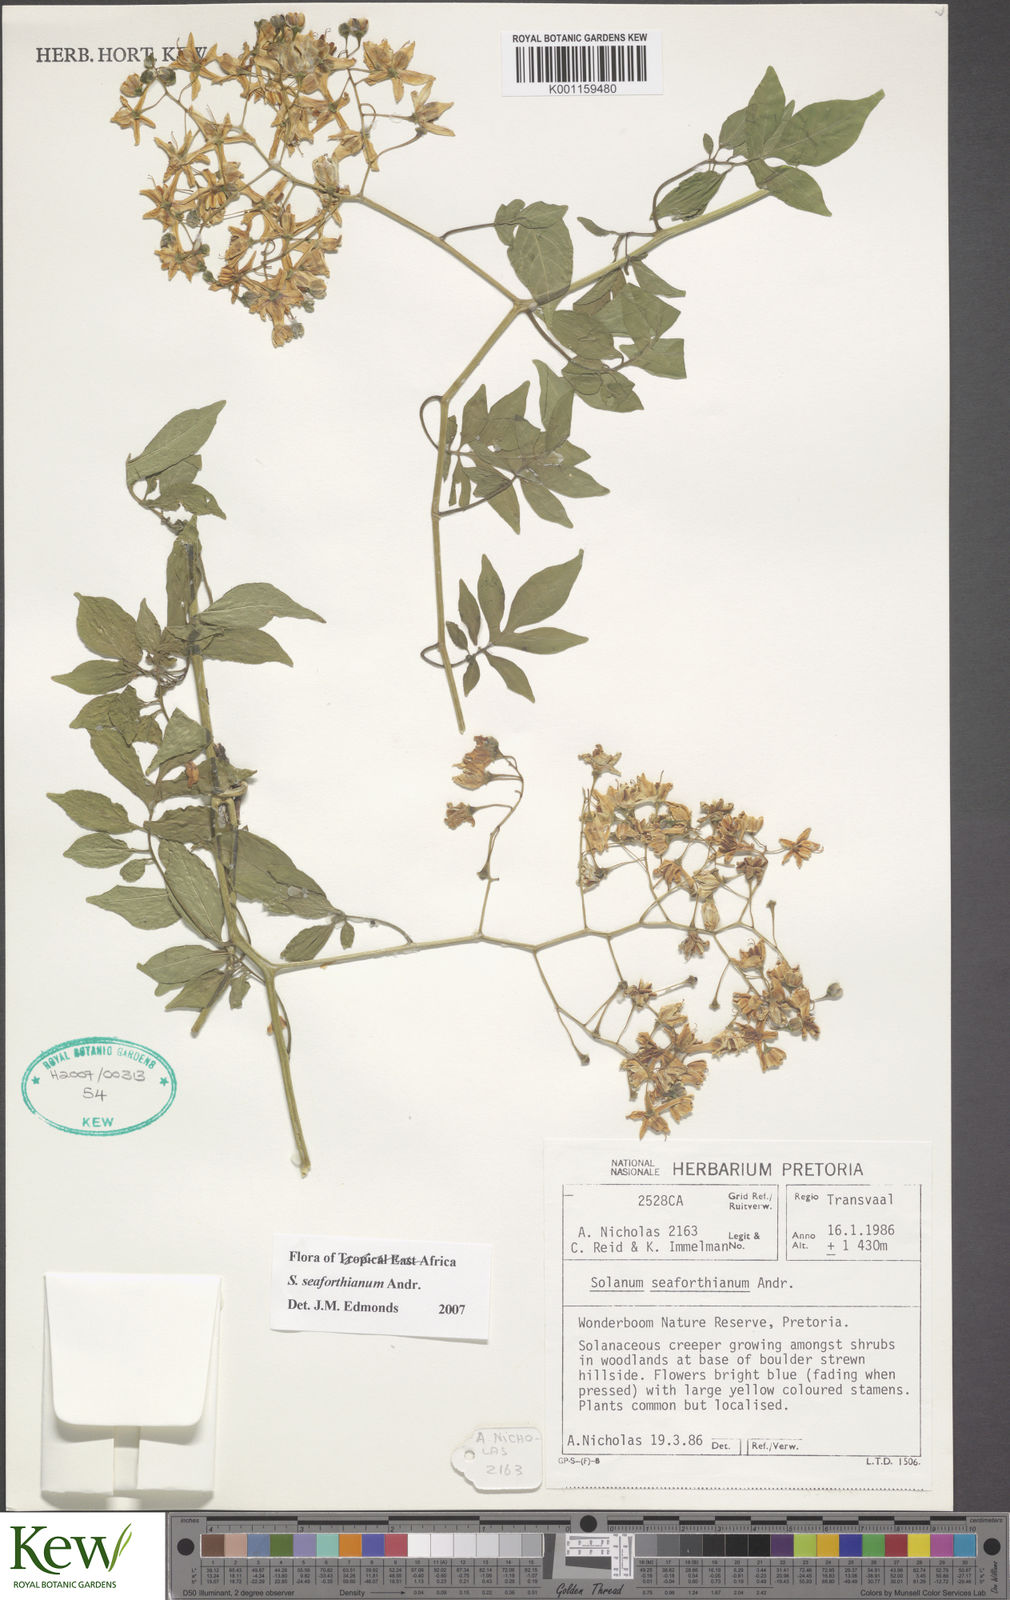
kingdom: Plantae
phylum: Tracheophyta
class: Magnoliopsida
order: Solanales
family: Solanaceae
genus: Solanum
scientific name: Solanum seaforthianum
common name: Brazilian nightshade
